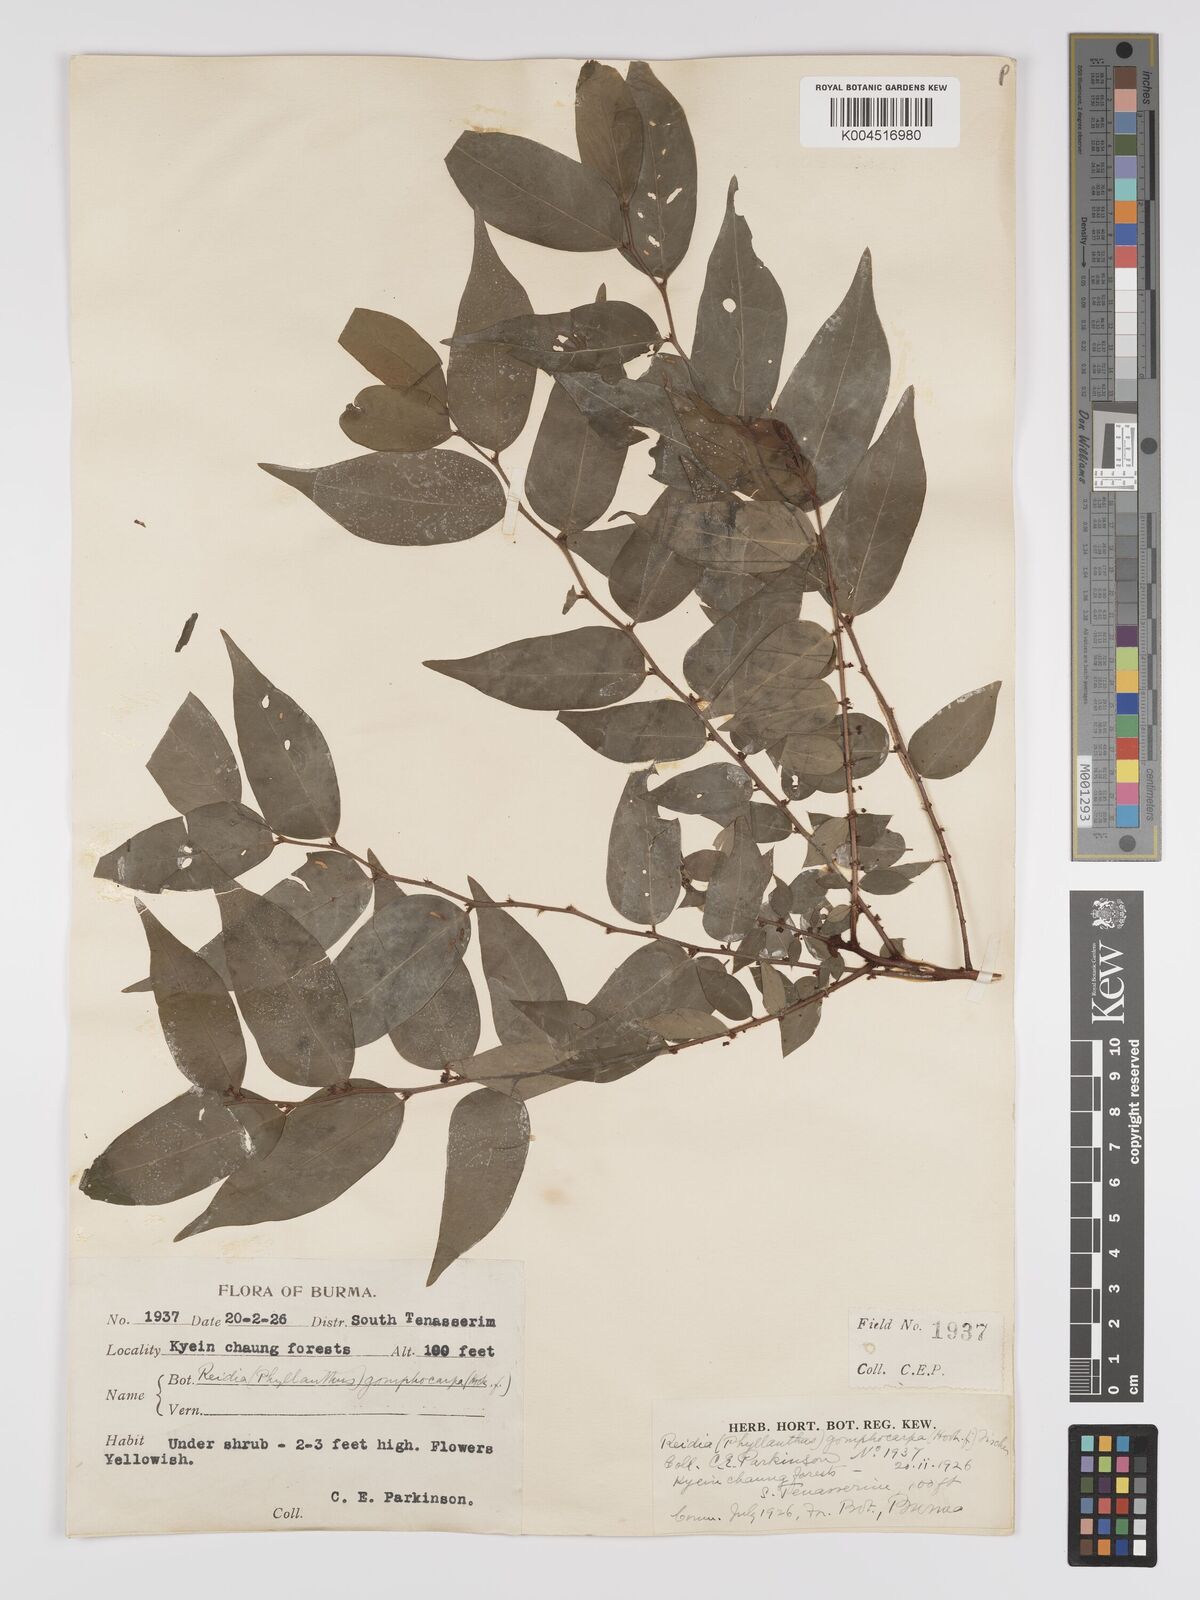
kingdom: Plantae
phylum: Tracheophyta
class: Magnoliopsida
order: Malpighiales
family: Phyllanthaceae
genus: Phyllanthus
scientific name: Phyllanthus
